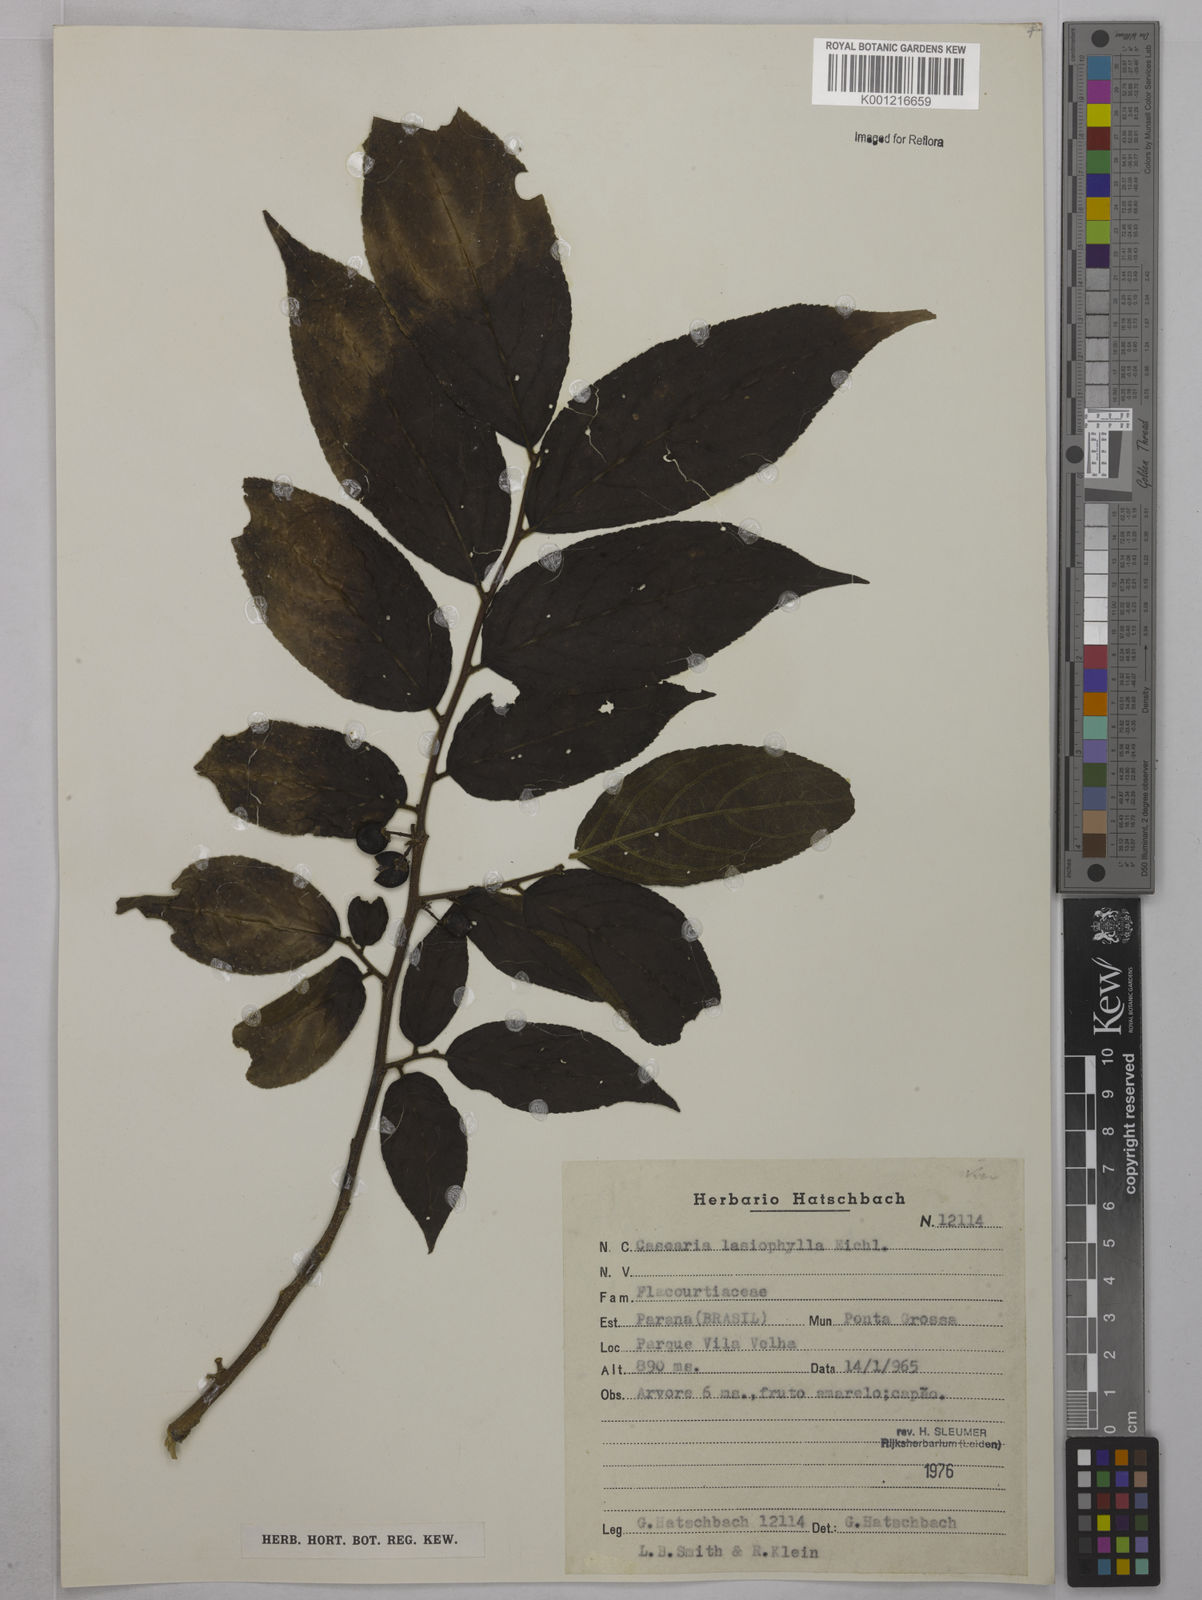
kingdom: Plantae
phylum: Tracheophyta
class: Magnoliopsida
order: Malpighiales
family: Salicaceae
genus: Casearia
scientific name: Casearia lasiophylla
